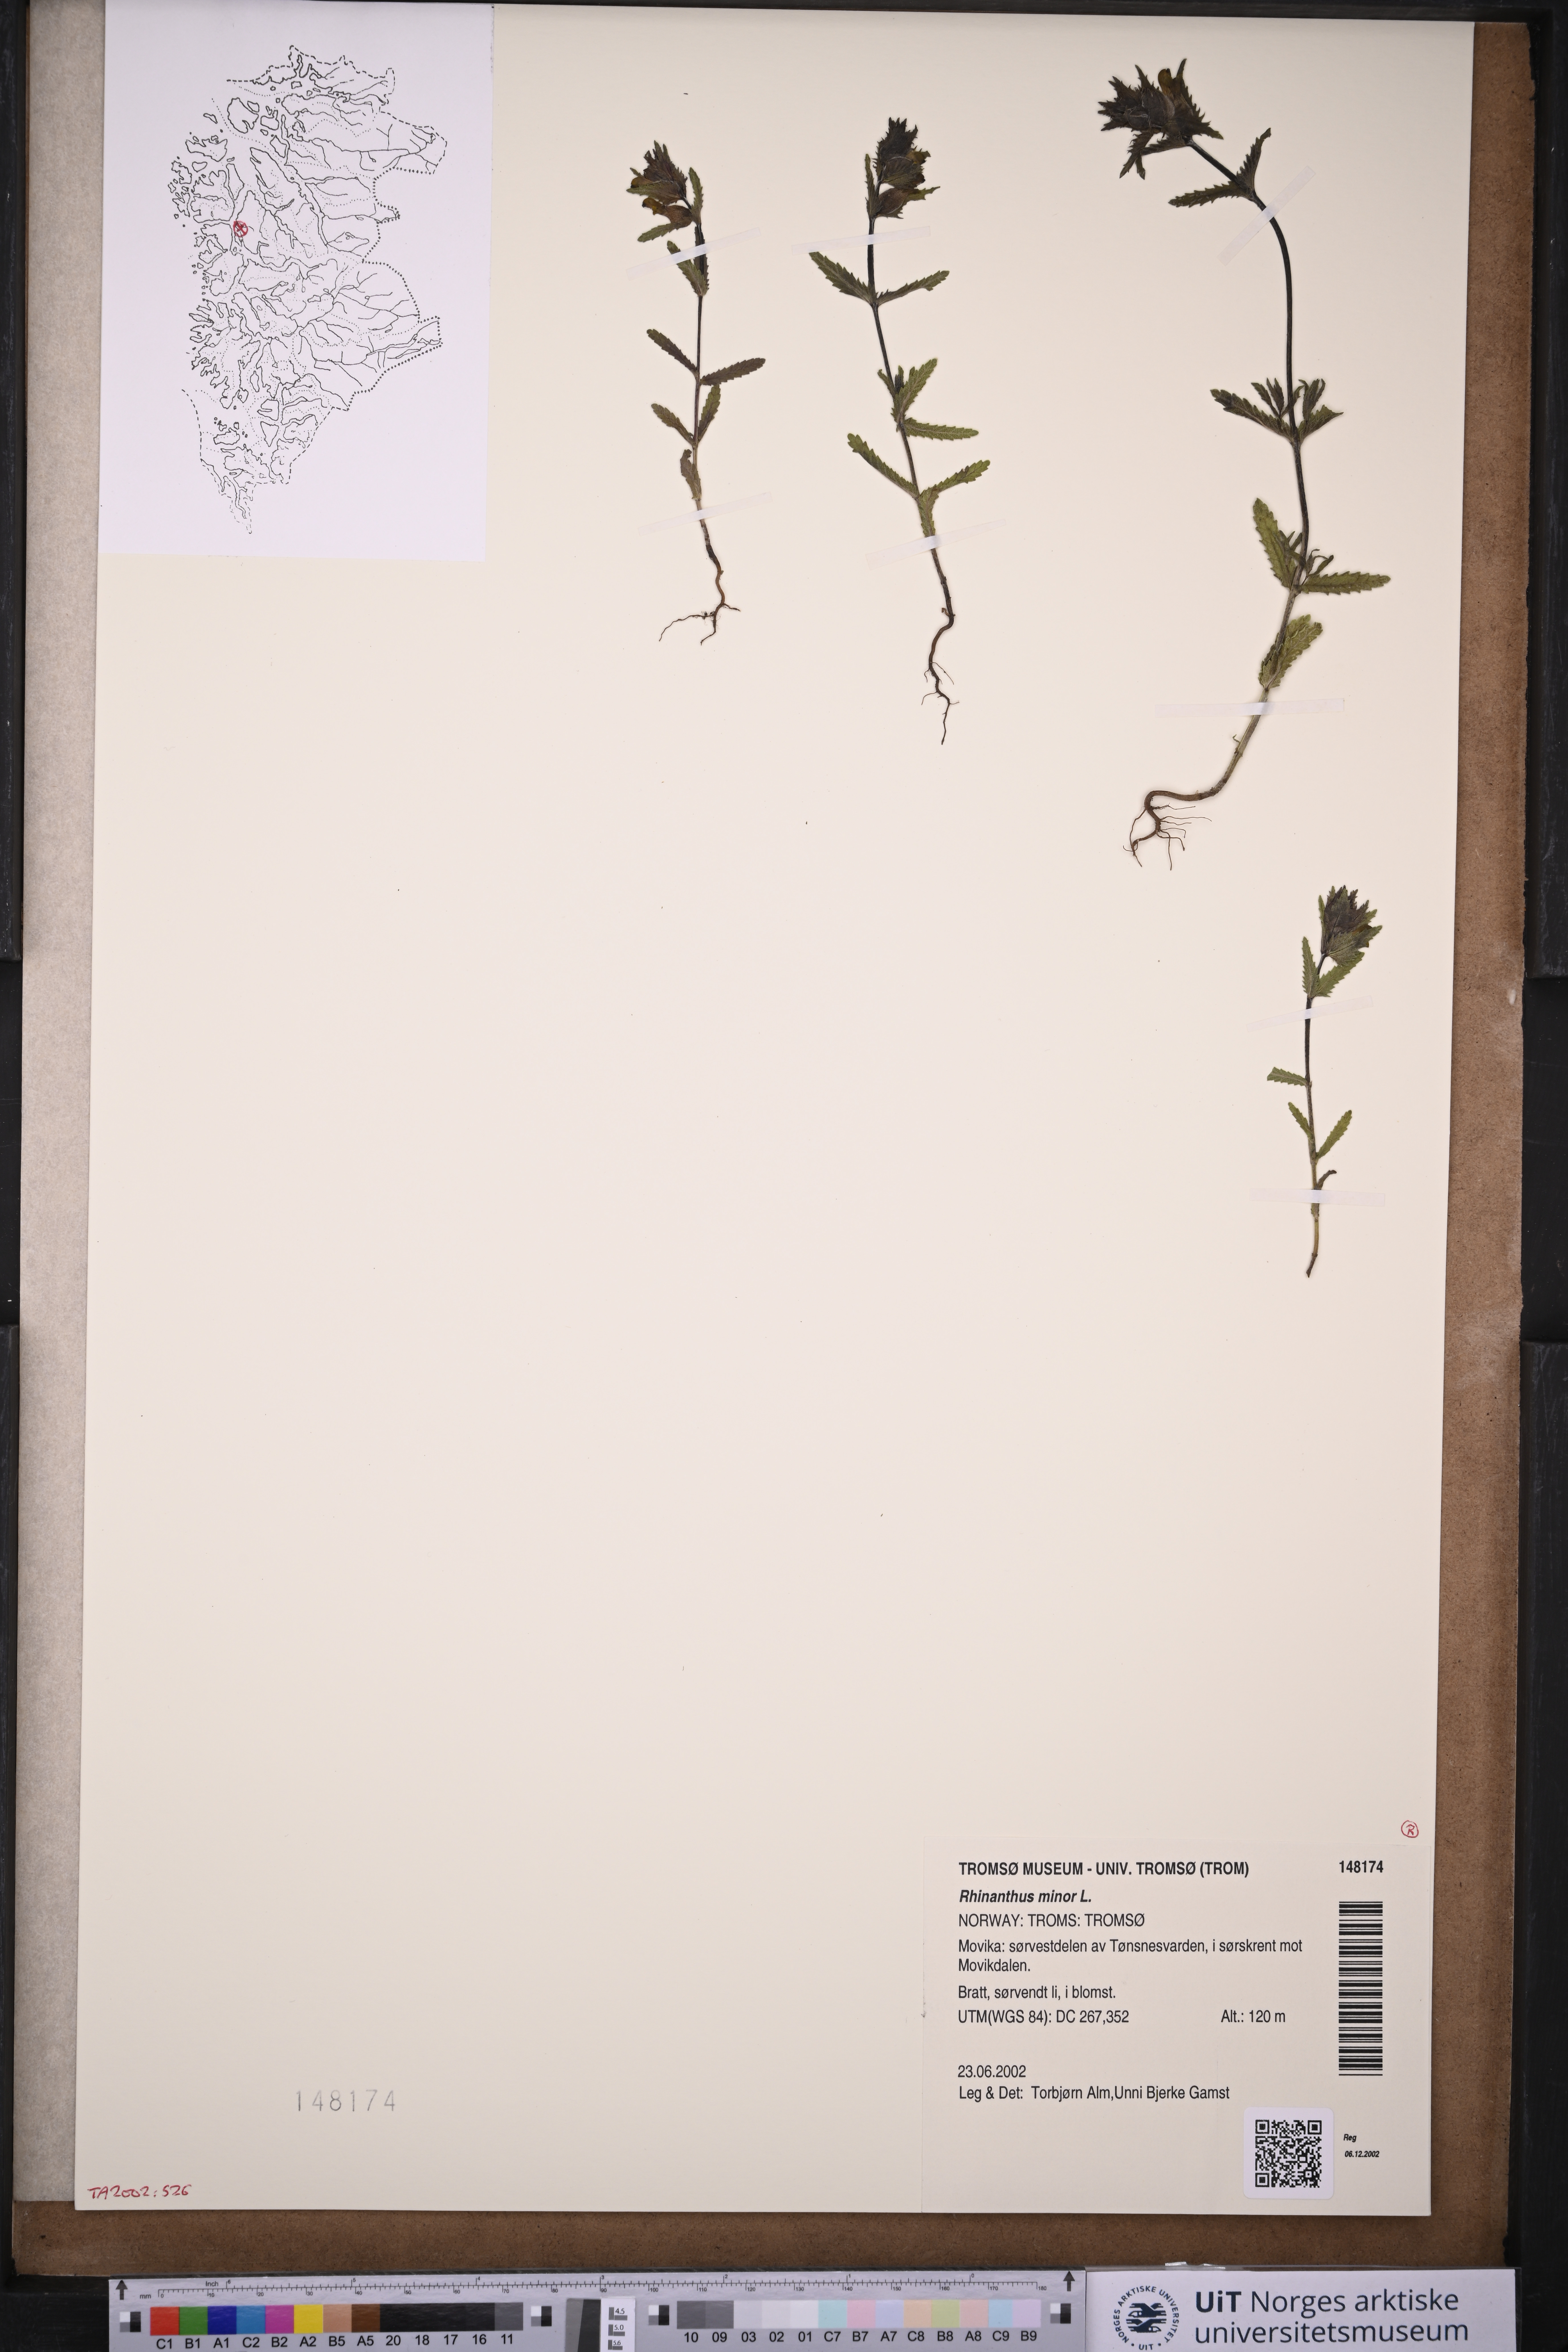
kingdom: Plantae
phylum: Tracheophyta
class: Magnoliopsida
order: Lamiales
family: Orobanchaceae
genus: Rhinanthus
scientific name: Rhinanthus minor
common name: Yellow-rattle
